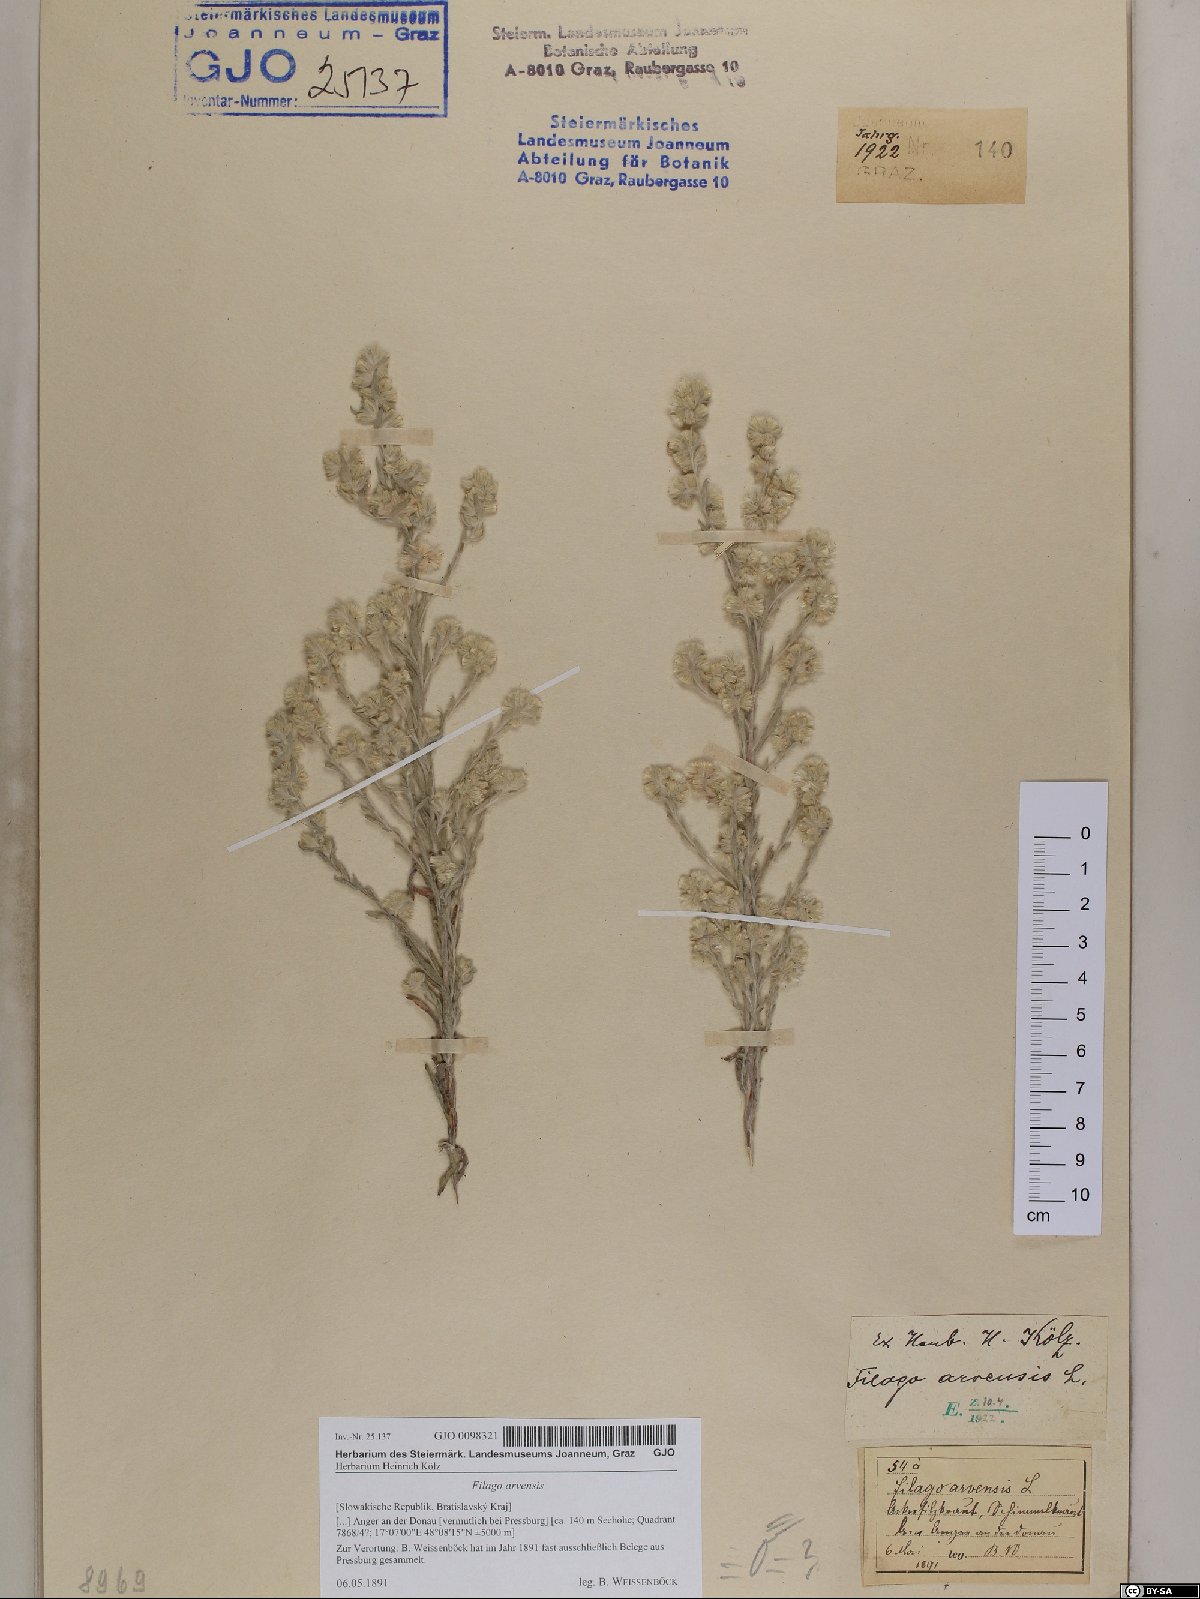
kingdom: Plantae
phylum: Tracheophyta
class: Magnoliopsida
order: Asterales
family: Asteraceae
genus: Filago
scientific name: Filago arvensis
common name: Field cudweed
